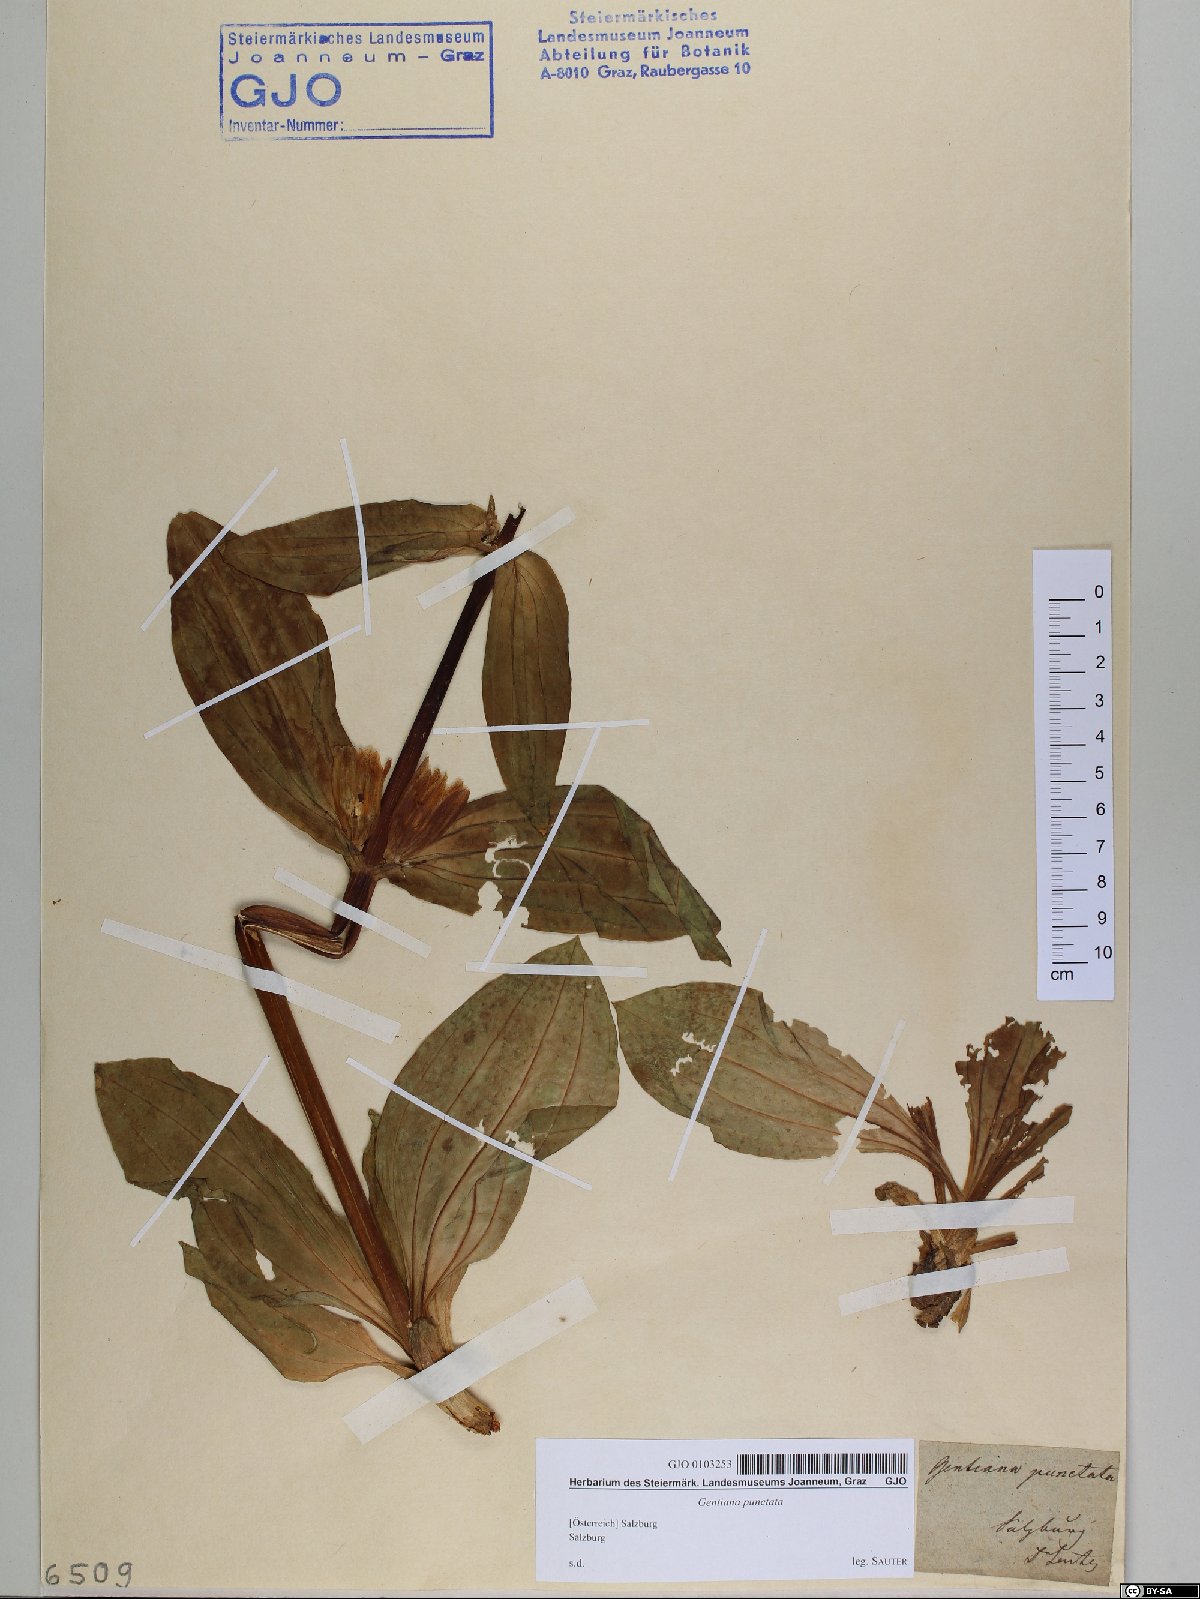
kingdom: Plantae
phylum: Tracheophyta
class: Magnoliopsida
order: Gentianales
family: Gentianaceae
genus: Gentiana
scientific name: Gentiana punctata
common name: Spotted gentian
